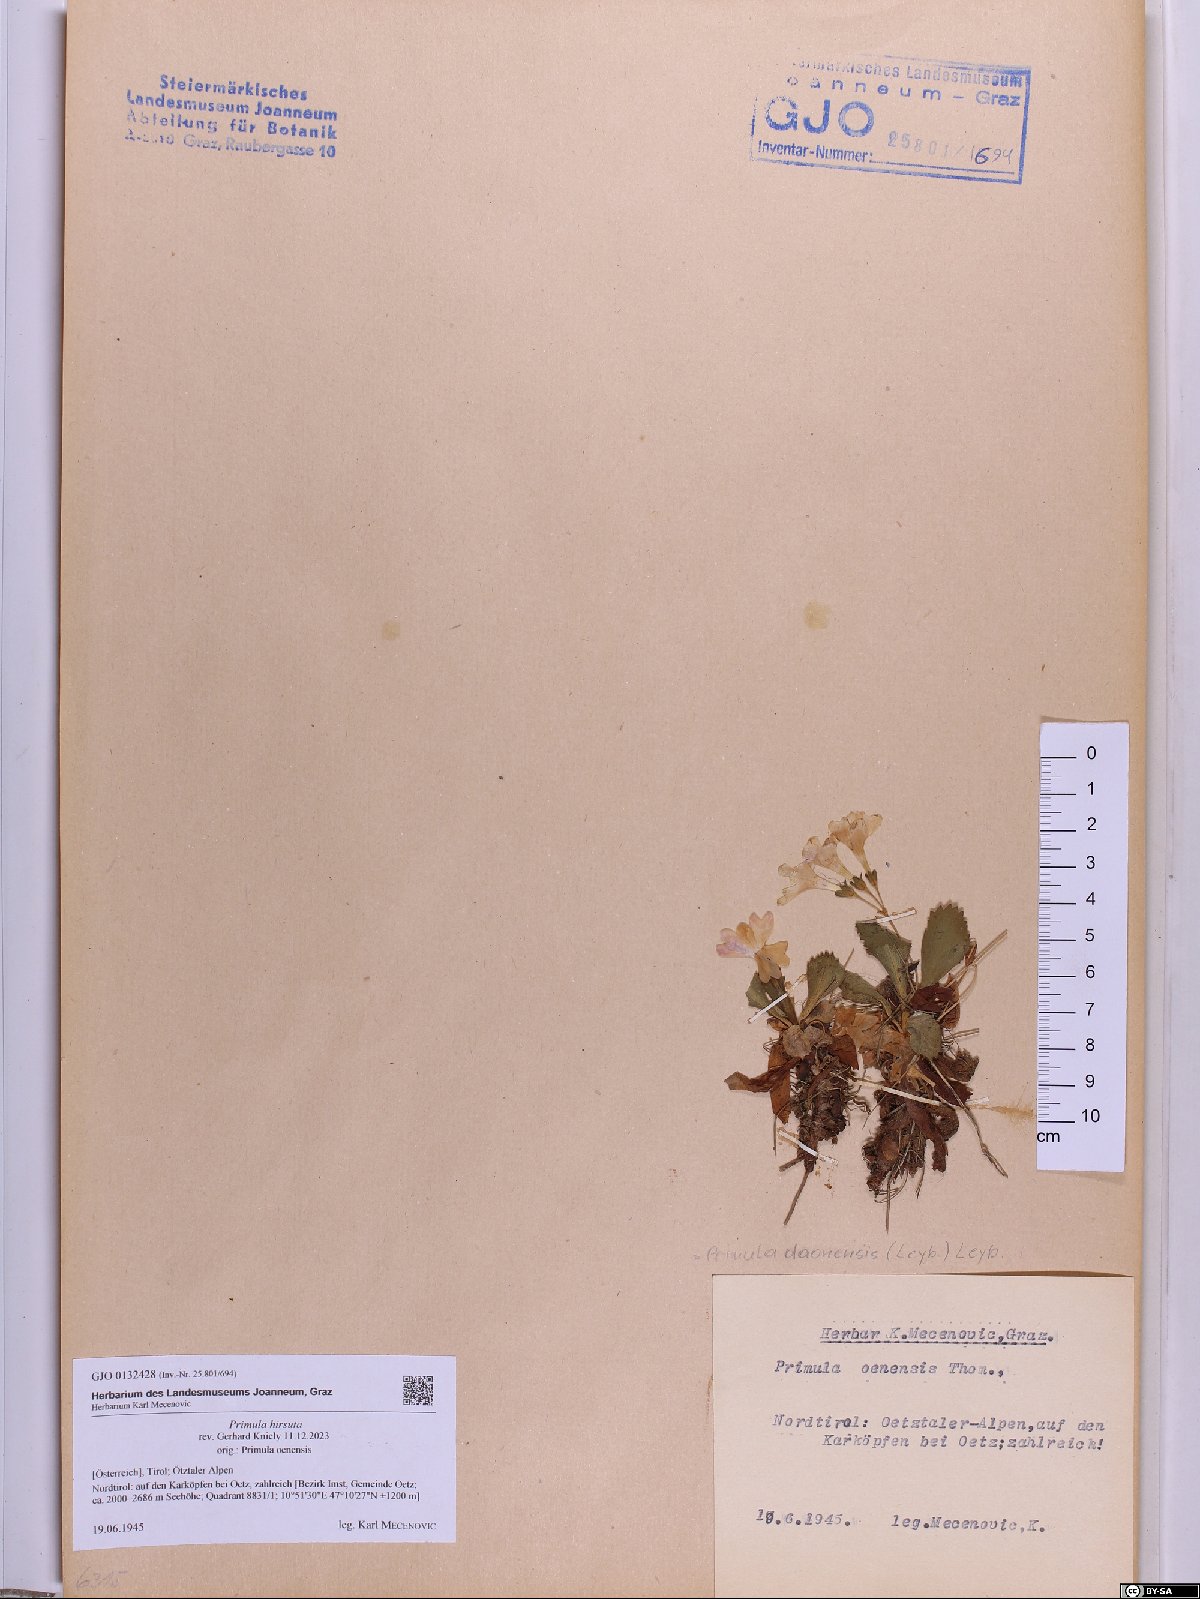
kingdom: Plantae
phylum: Tracheophyta
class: Magnoliopsida
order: Ericales
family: Primulaceae
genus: Primula
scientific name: Primula hirsuta
